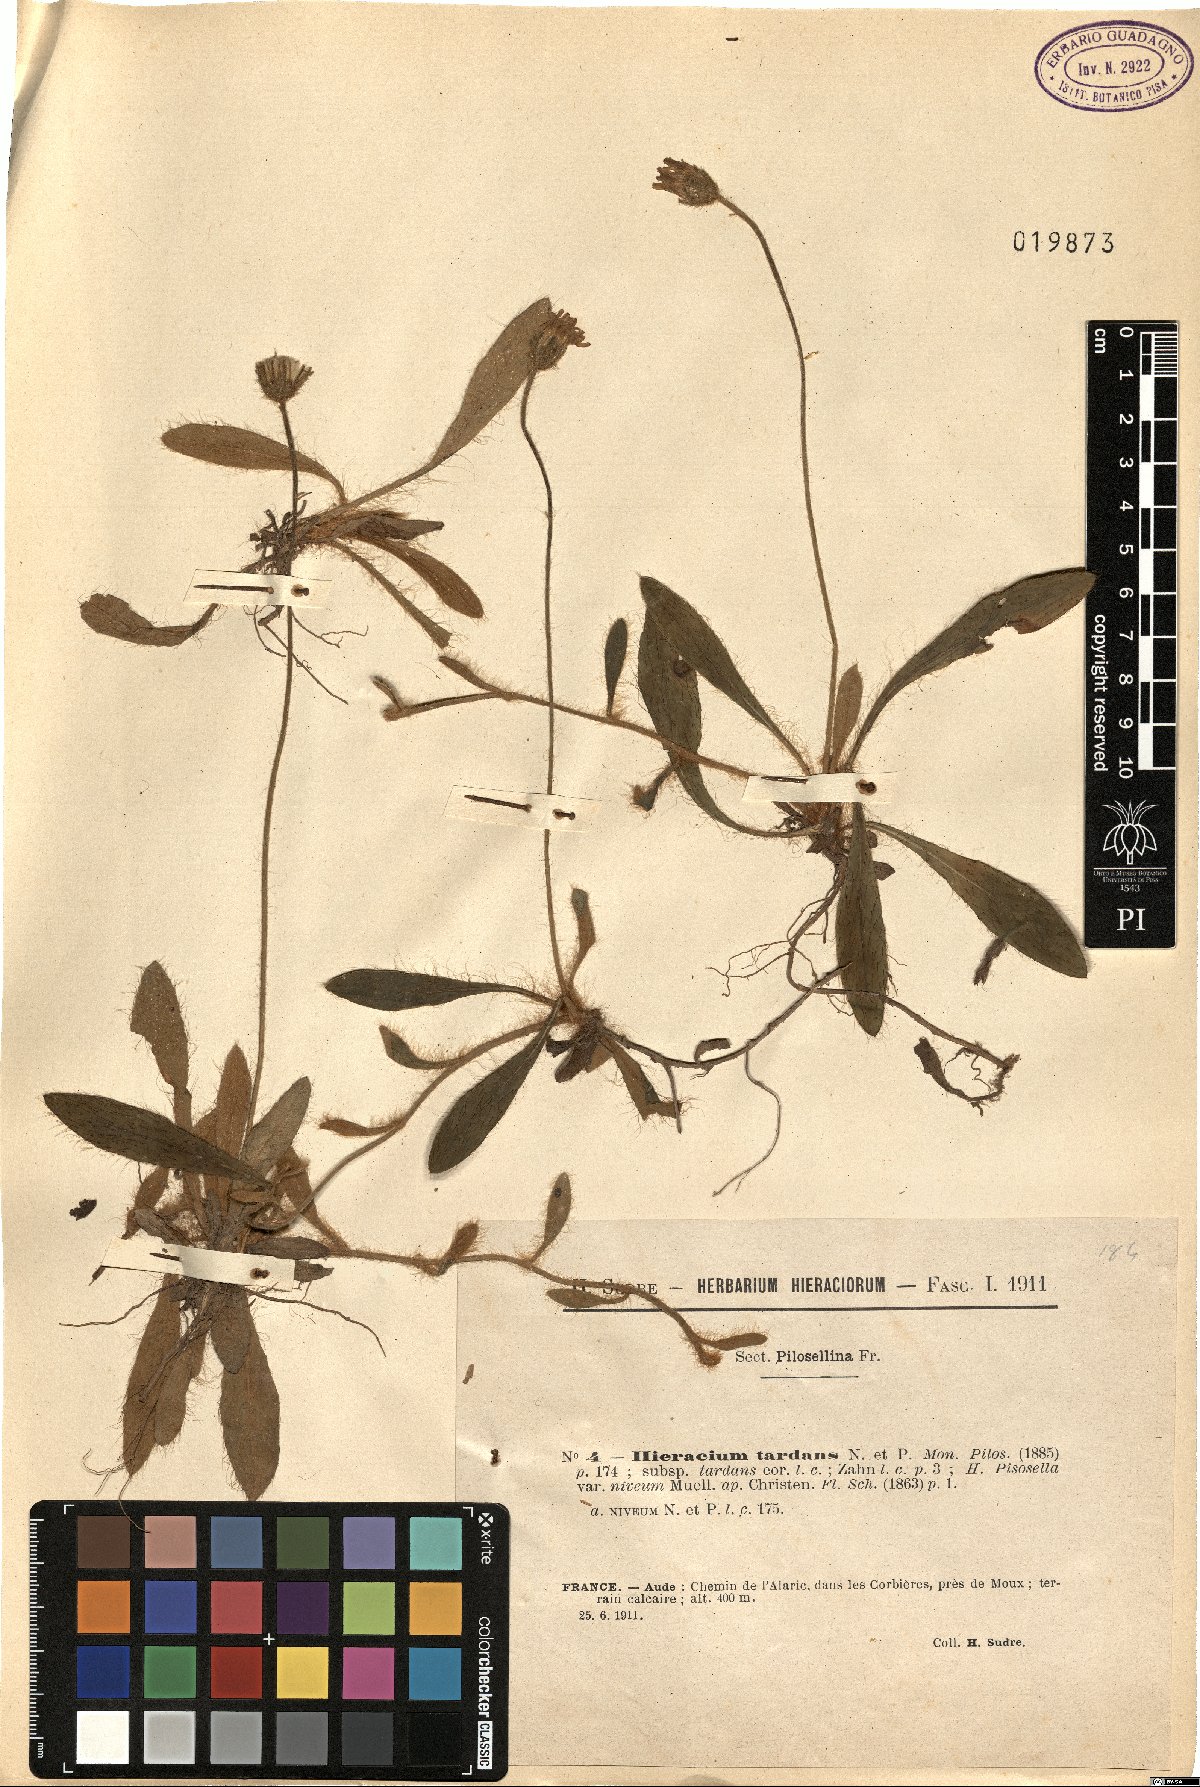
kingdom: Plantae
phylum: Tracheophyta
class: Magnoliopsida
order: Asterales
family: Asteraceae
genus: Pilosella
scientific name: Pilosella tardans
